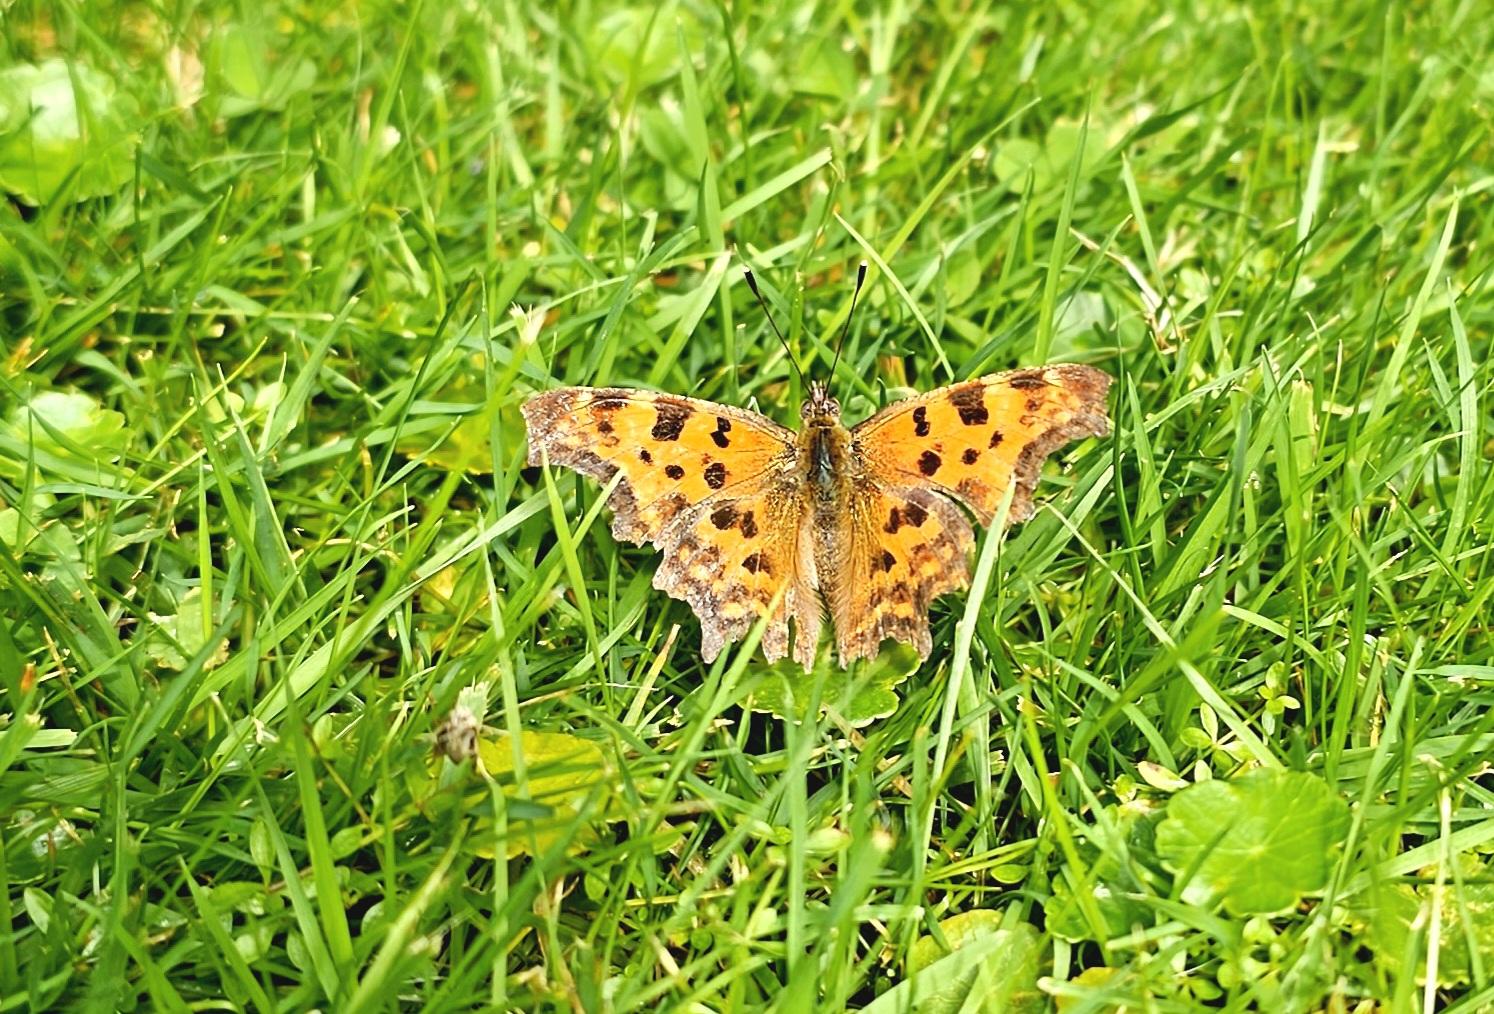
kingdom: Animalia
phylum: Arthropoda
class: Insecta
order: Lepidoptera
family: Nymphalidae
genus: Polygonia
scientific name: Polygonia c-album
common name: Det hvide C
